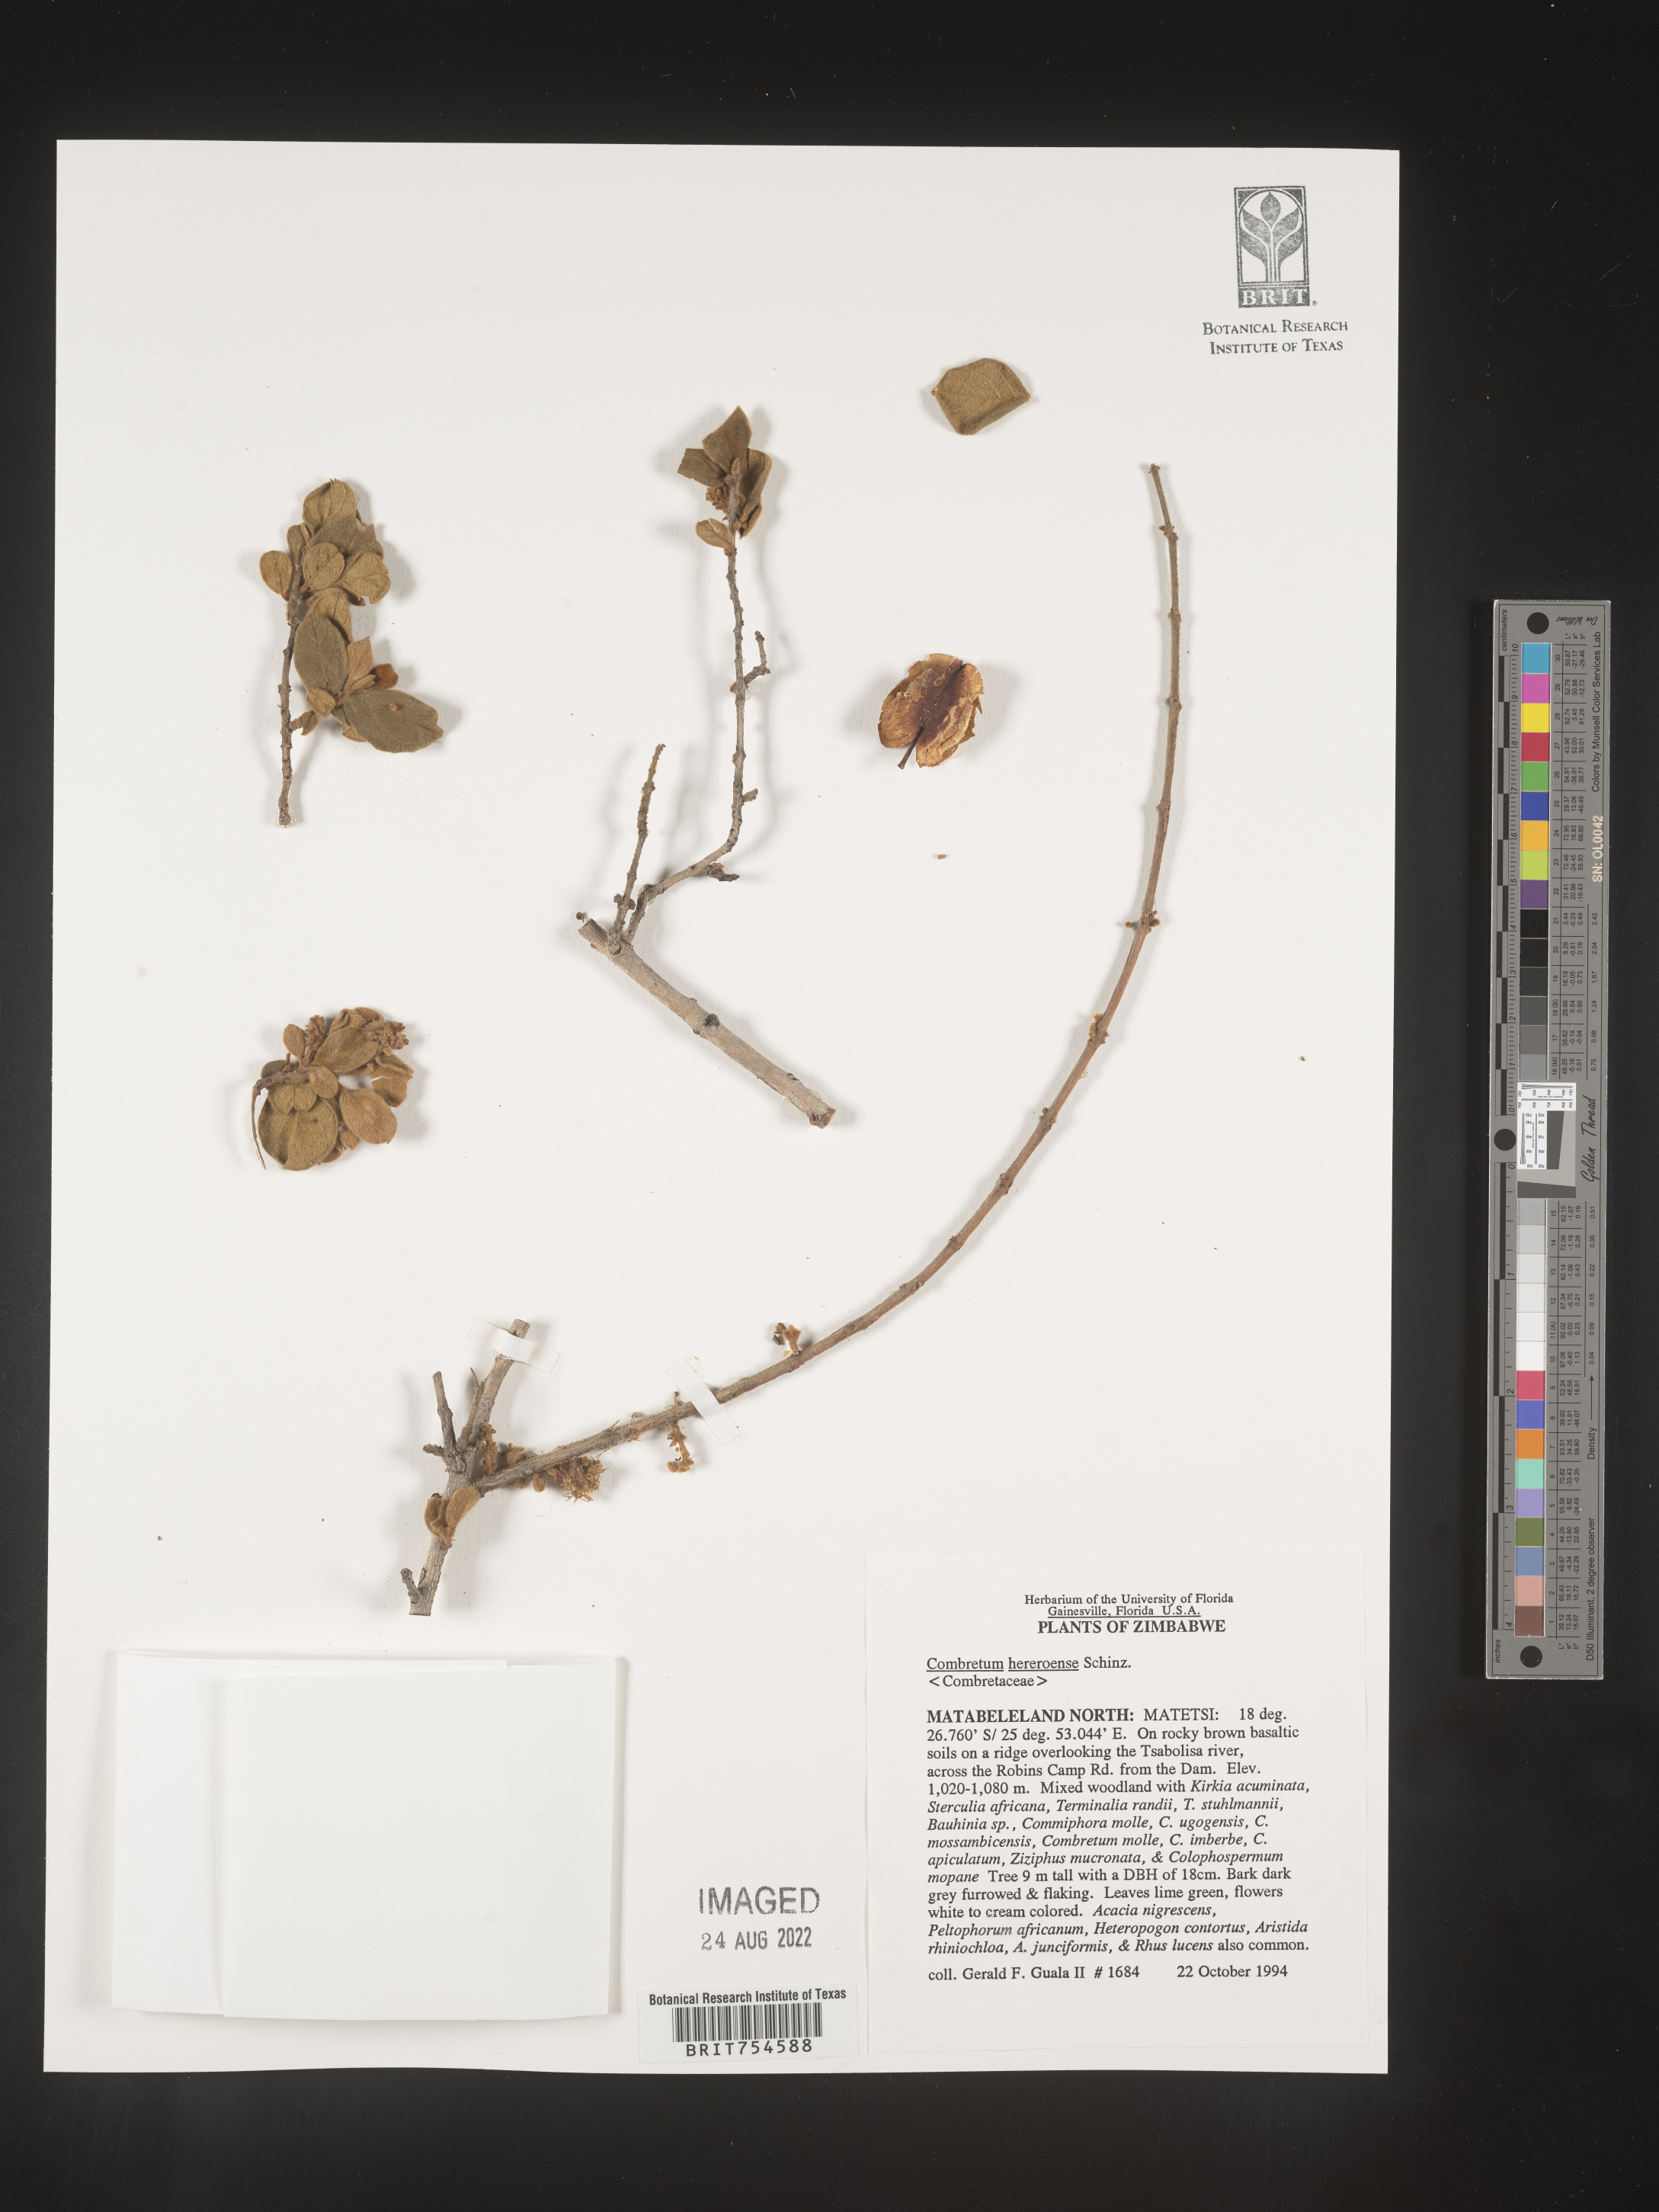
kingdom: Plantae
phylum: Tracheophyta
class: Magnoliopsida
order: Myrtales
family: Combretaceae
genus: Combretum
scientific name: Combretum
